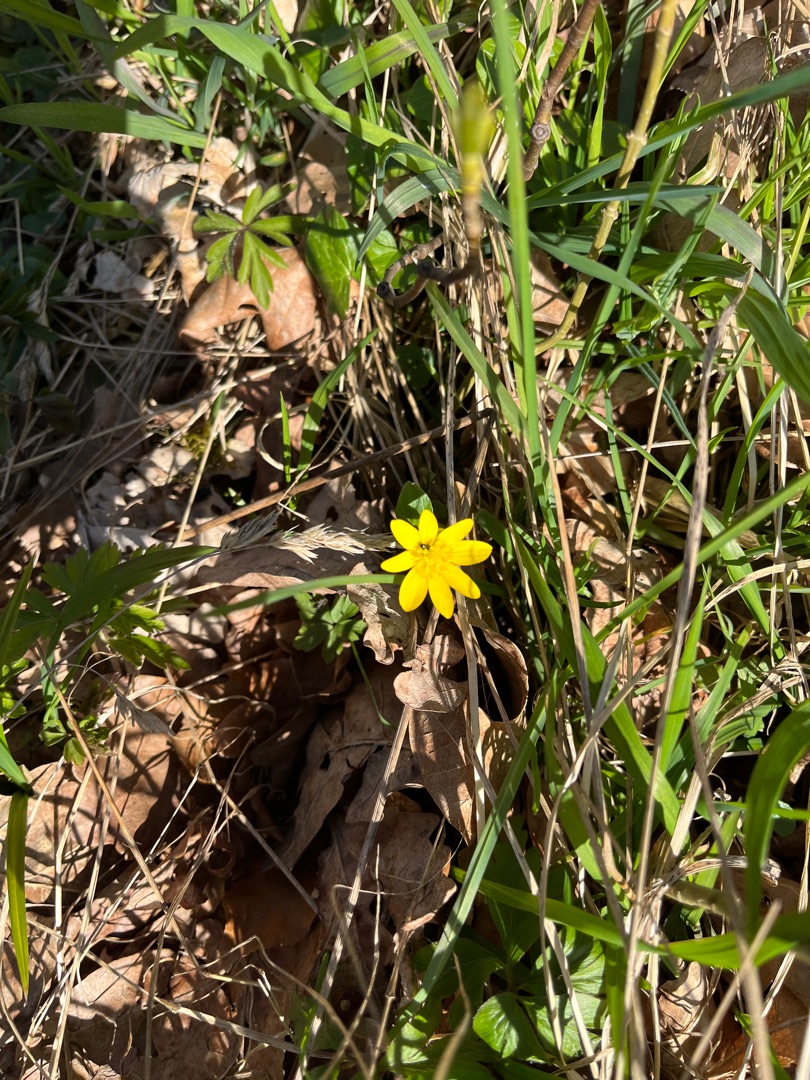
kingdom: Plantae
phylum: Tracheophyta
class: Magnoliopsida
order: Ranunculales
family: Ranunculaceae
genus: Ficaria
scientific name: Ficaria verna
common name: Vorterod
